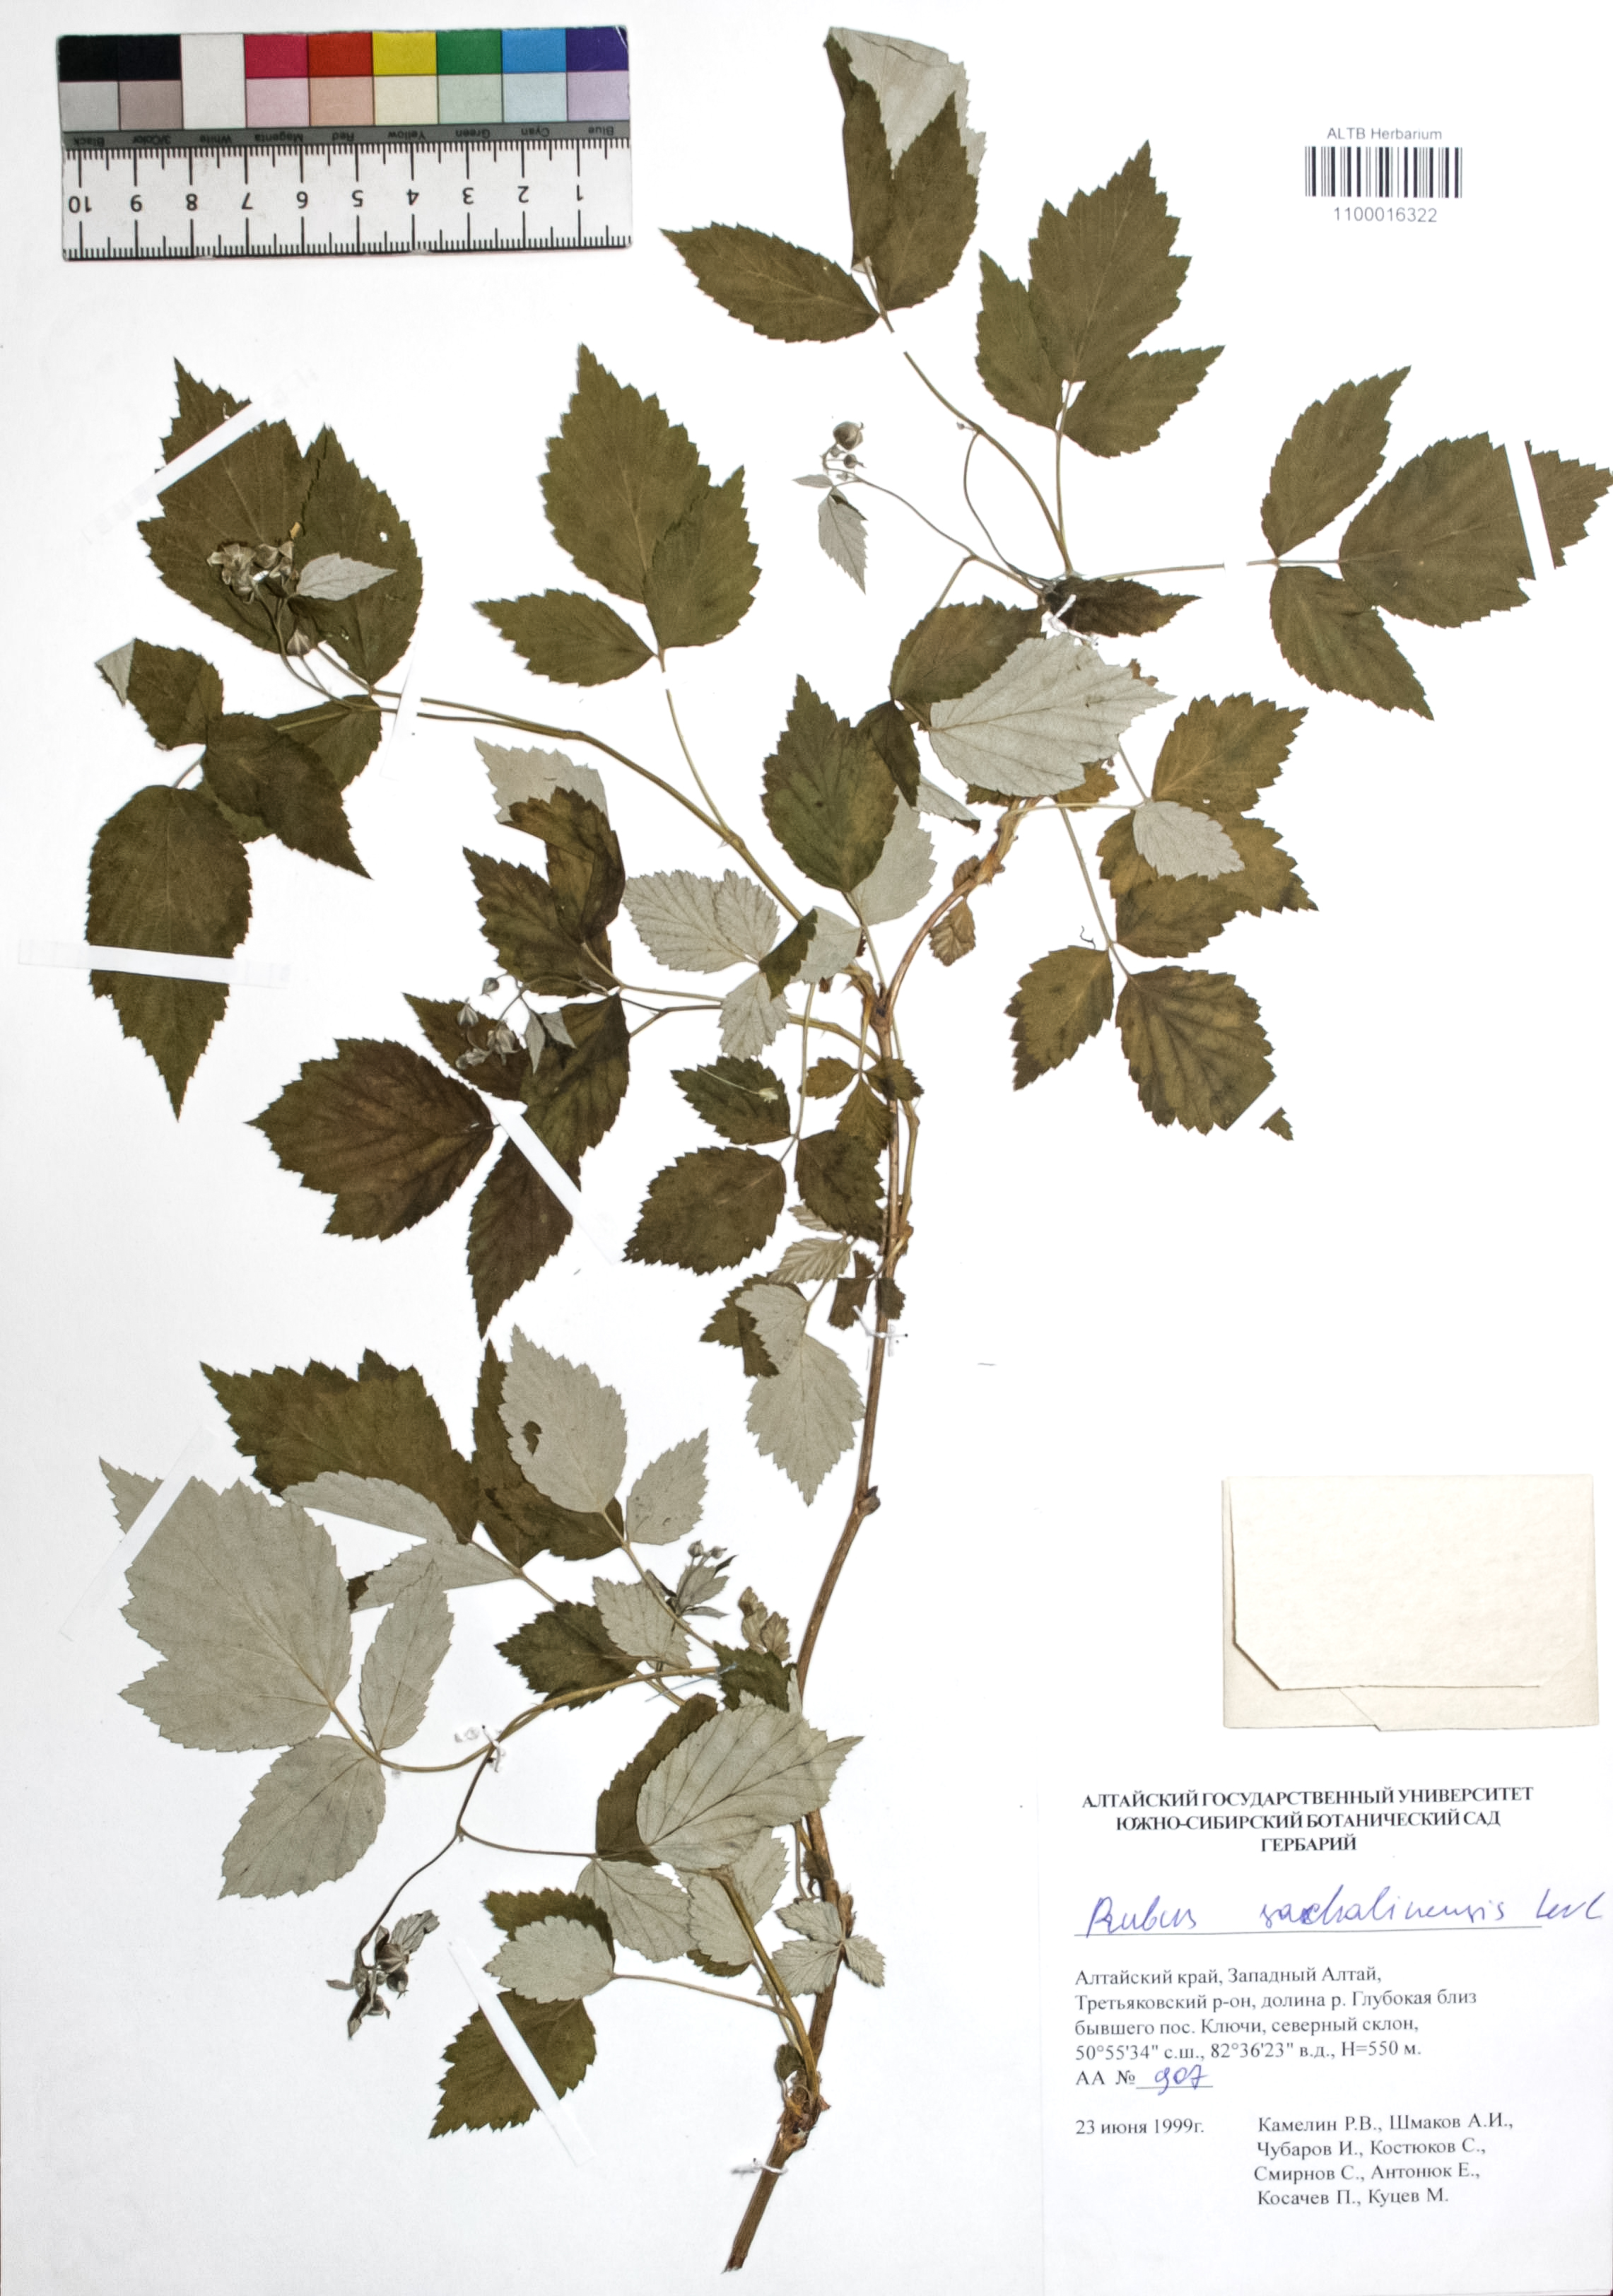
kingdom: Plantae
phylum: Tracheophyta
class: Magnoliopsida
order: Rosales
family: Rosaceae
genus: Rubus
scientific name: Rubus sachalinensis
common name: Red raspberry
